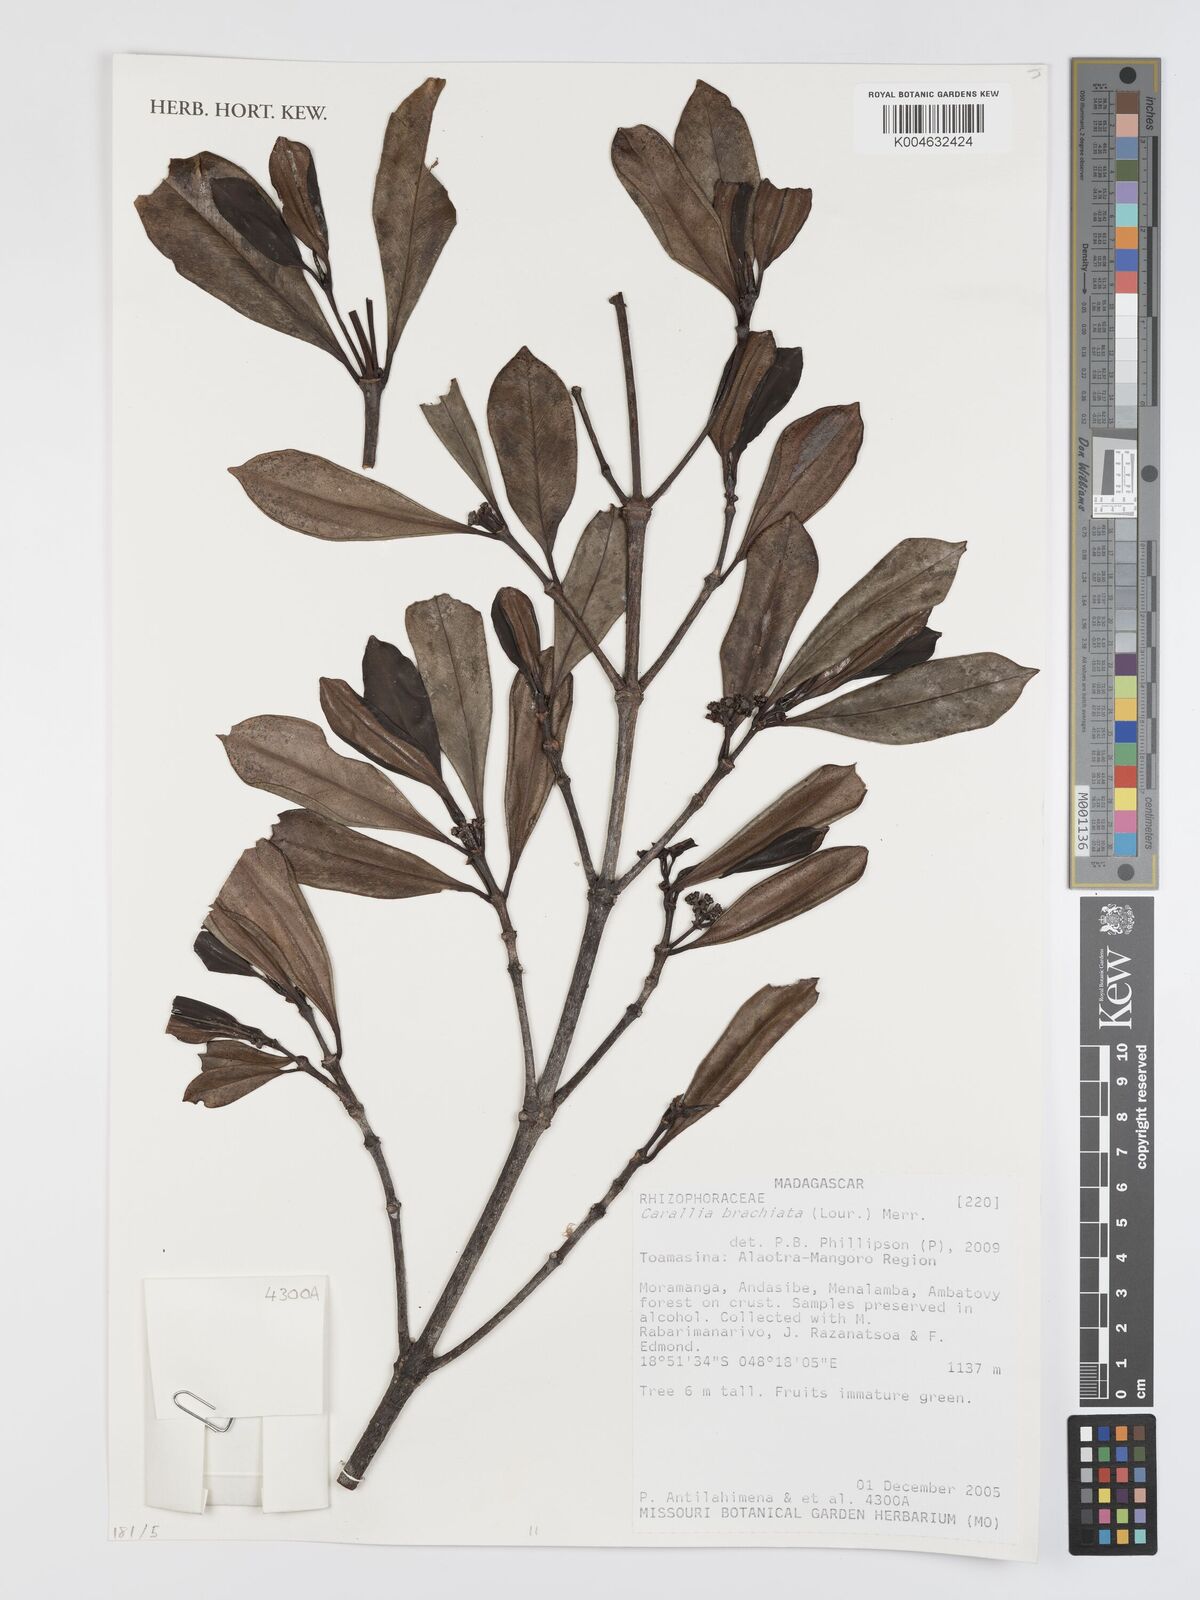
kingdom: Plantae
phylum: Tracheophyta
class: Magnoliopsida
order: Malpighiales
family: Rhizophoraceae
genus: Carallia
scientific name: Carallia brachiata
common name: Carallawood
